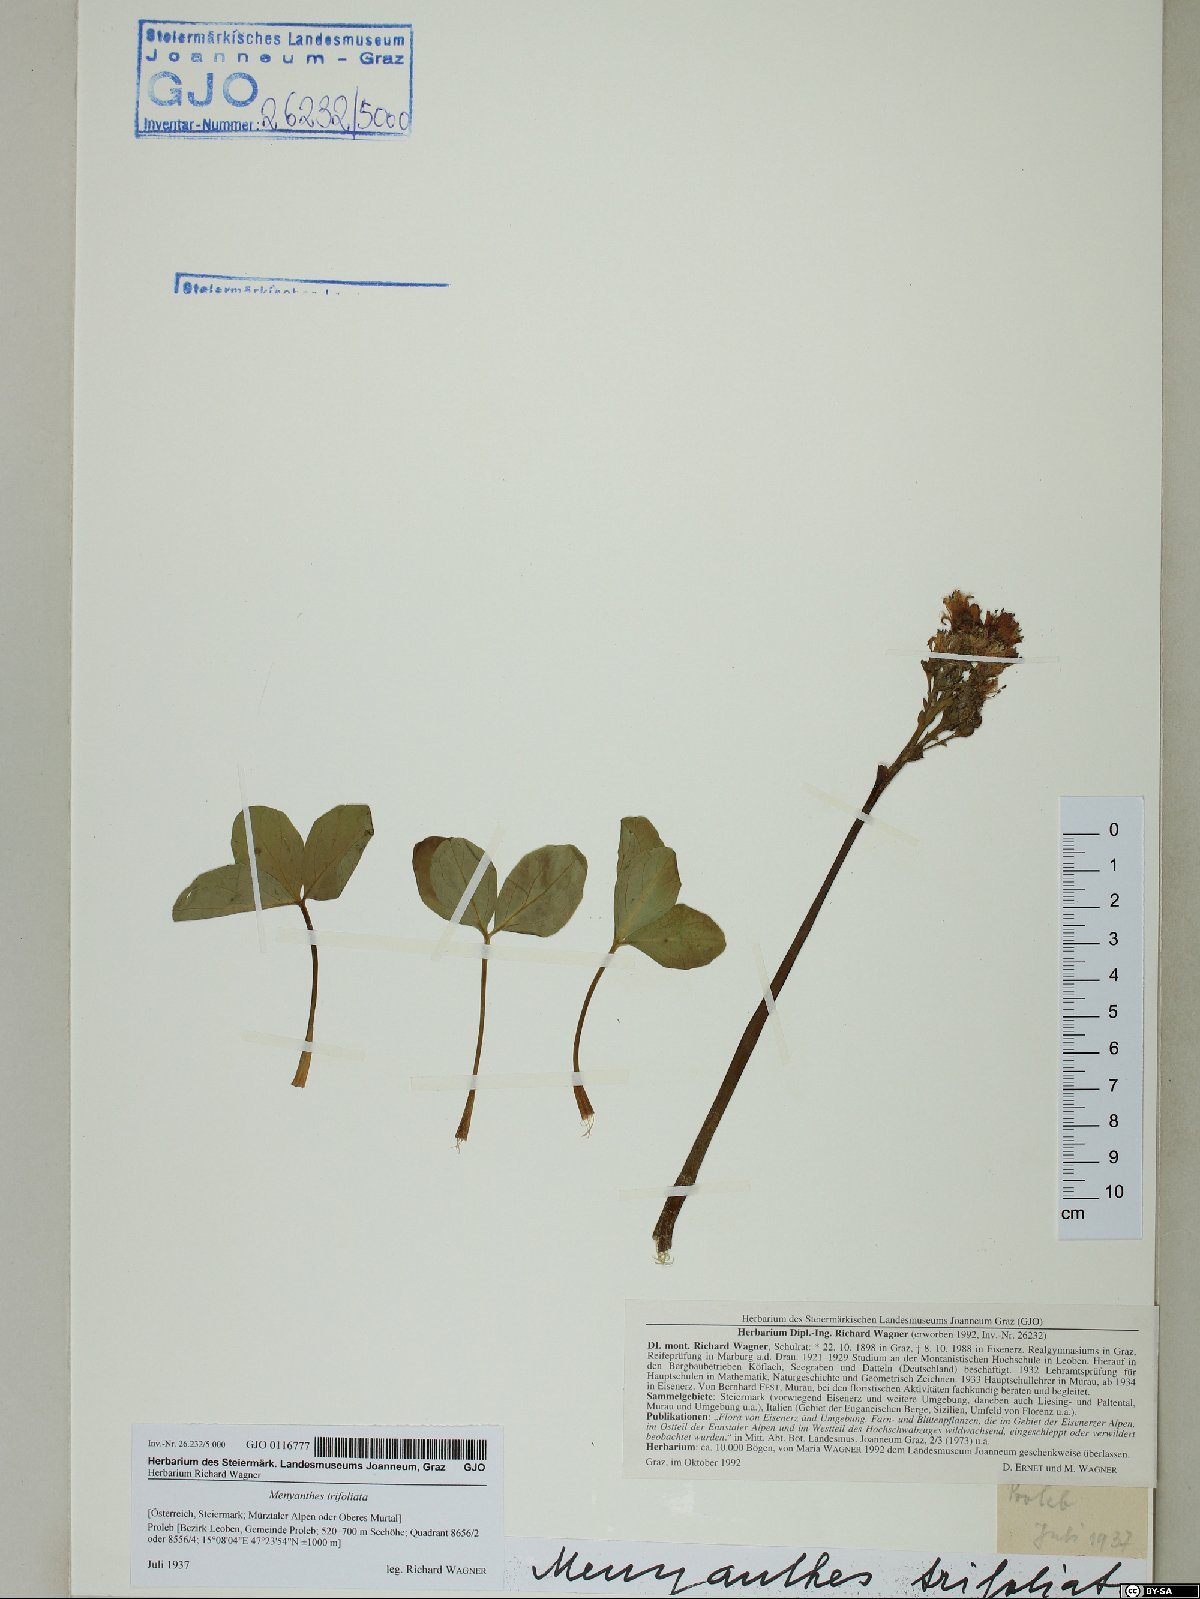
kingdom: Plantae
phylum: Tracheophyta
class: Magnoliopsida
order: Asterales
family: Menyanthaceae
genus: Menyanthes
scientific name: Menyanthes trifoliata
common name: Bogbean
